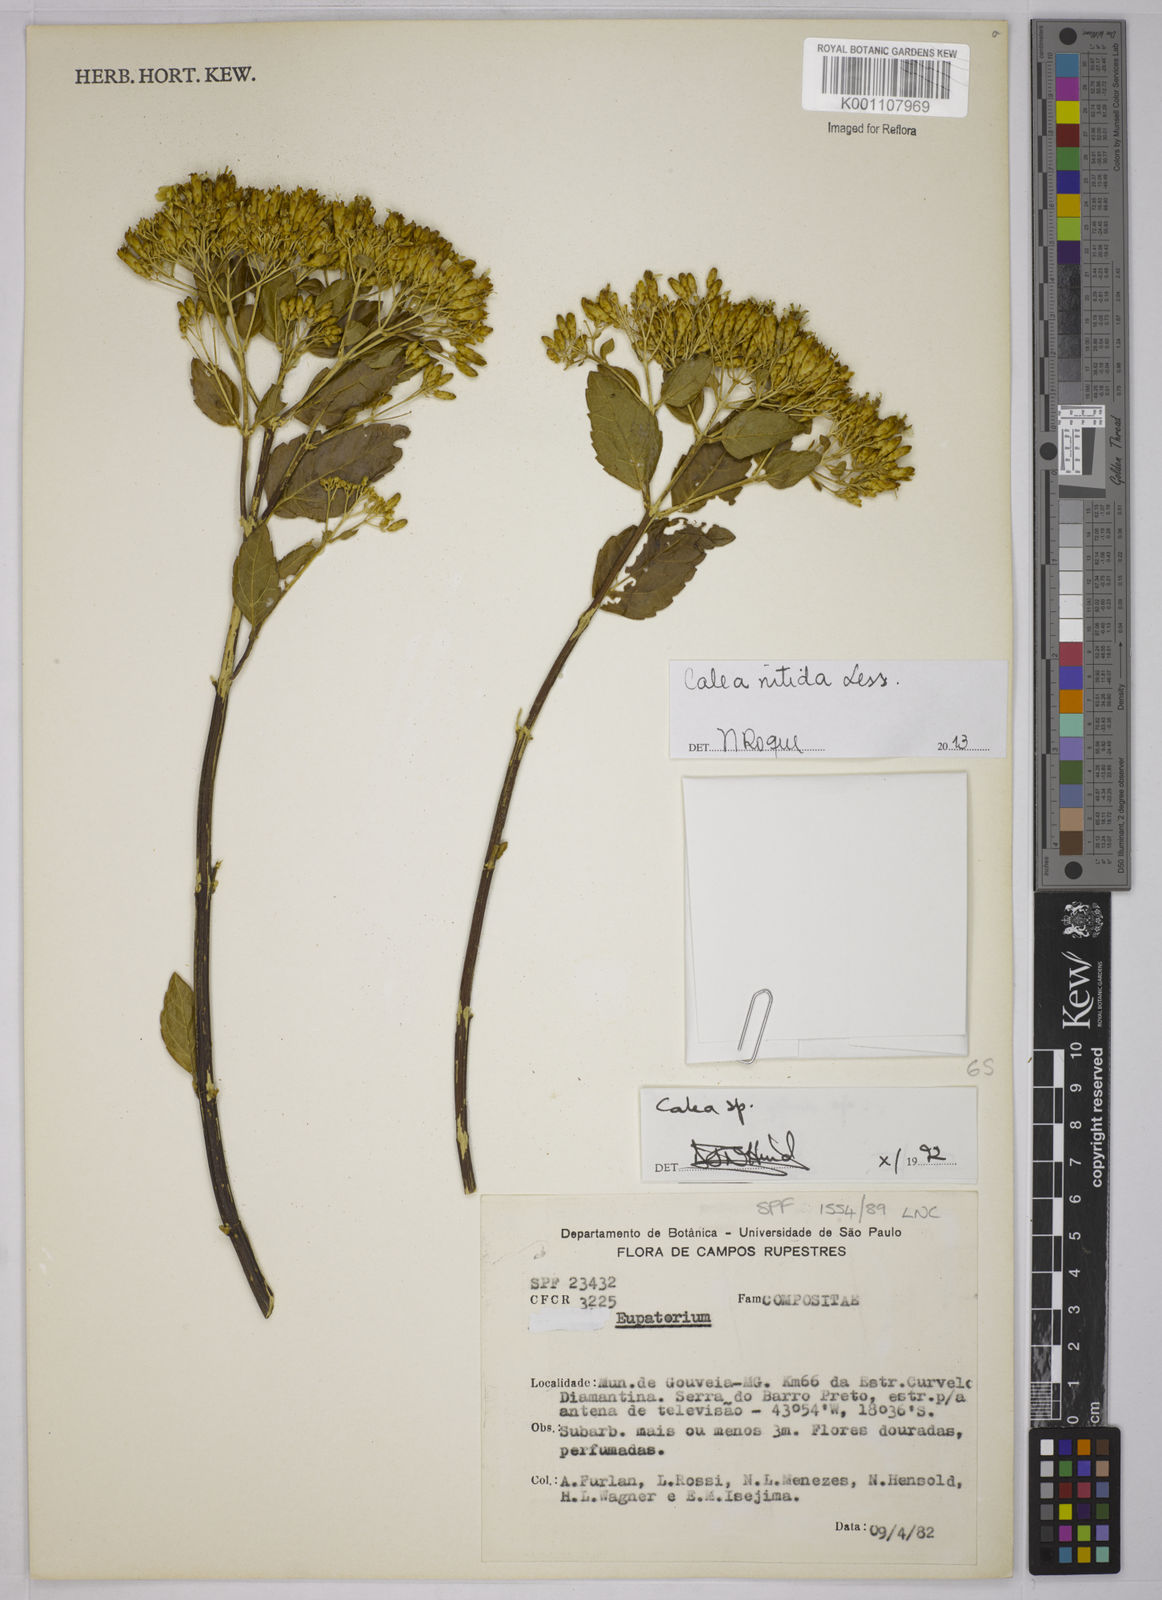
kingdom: Plantae
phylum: Tracheophyta
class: Magnoliopsida
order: Asterales
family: Asteraceae
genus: Calea
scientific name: Calea nitida
